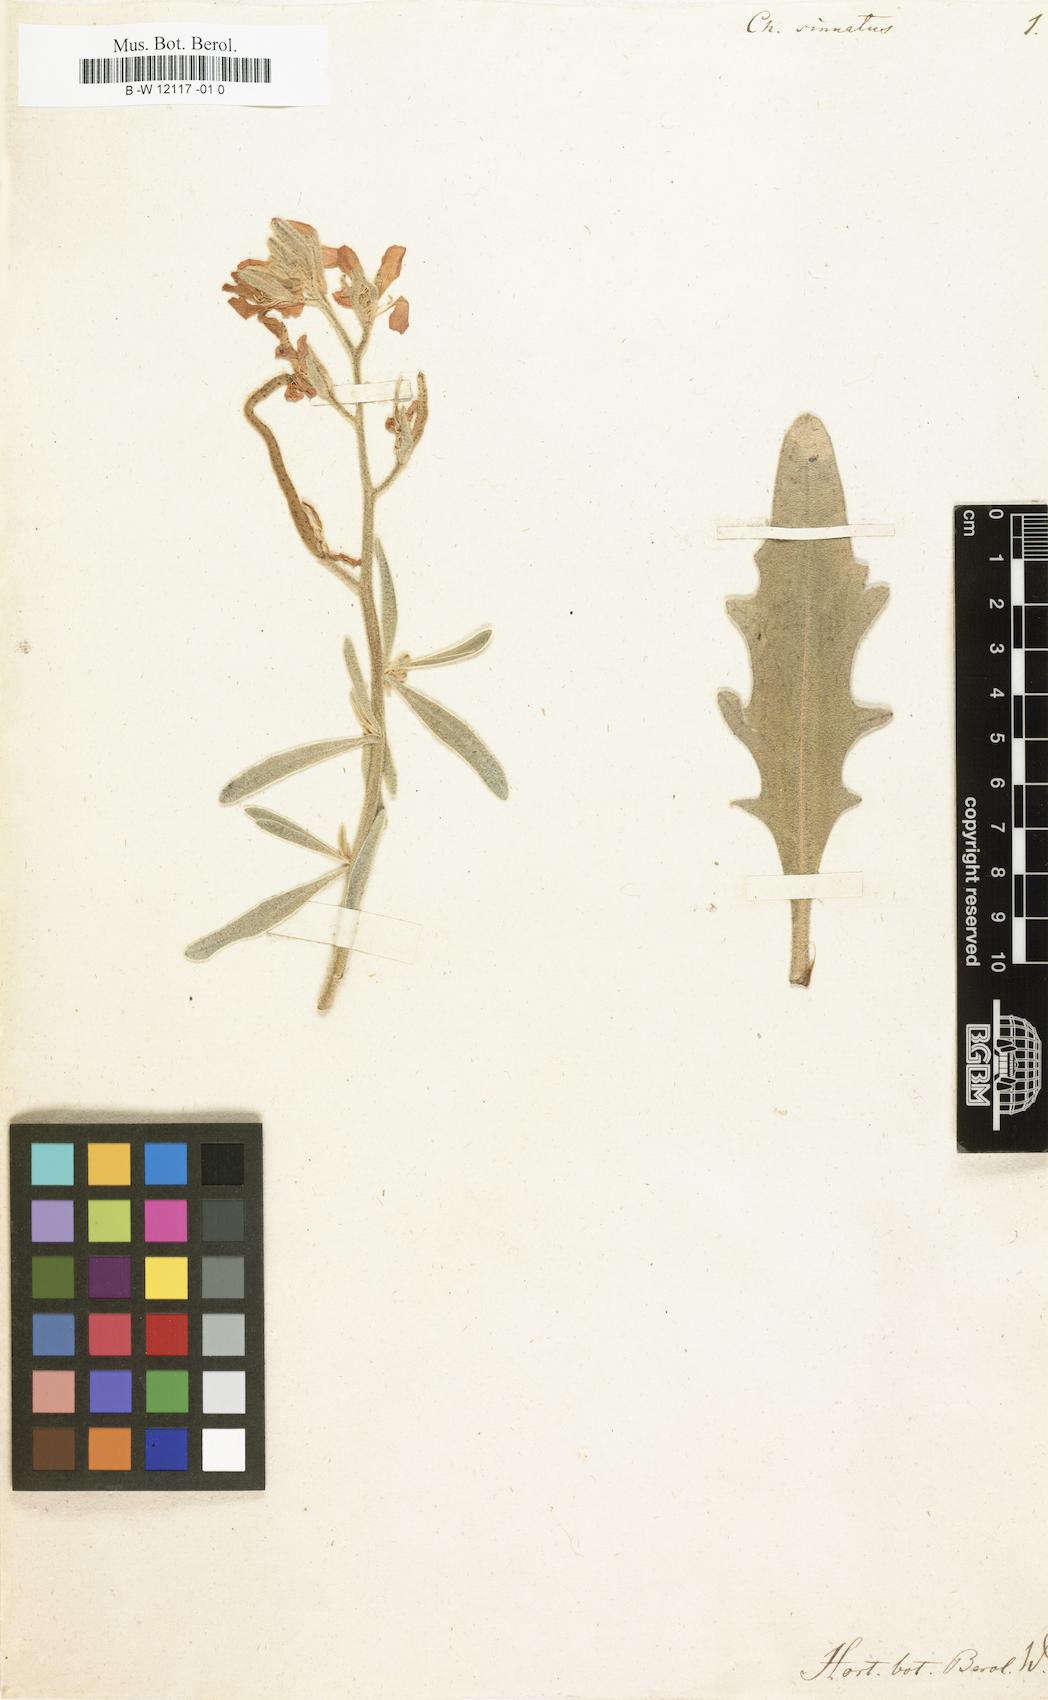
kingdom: Plantae
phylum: Tracheophyta
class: Magnoliopsida
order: Brassicales
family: Brassicaceae
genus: Matthiola
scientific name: Matthiola sinuata
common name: Sea stock
